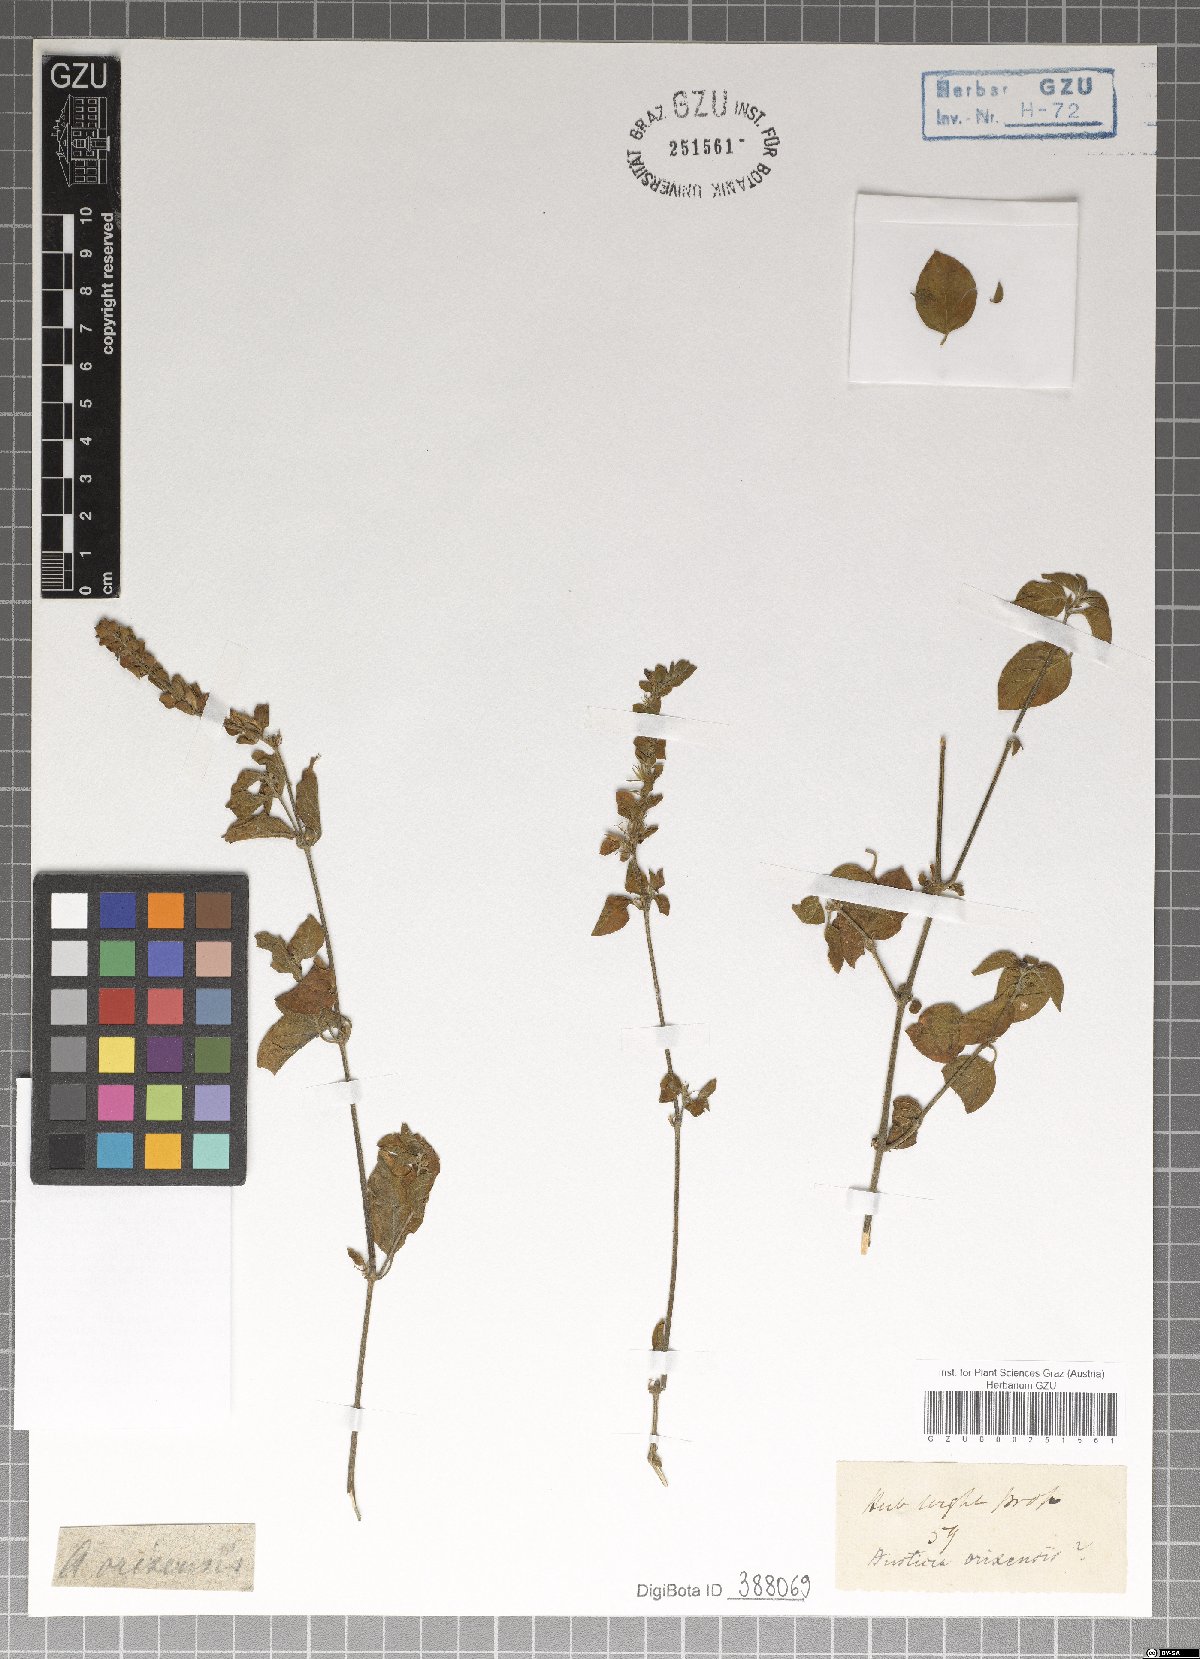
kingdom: Plantae
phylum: Tracheophyta
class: Magnoliopsida
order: Lamiales
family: Acanthaceae
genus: Justicia
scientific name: Justicia glauca
